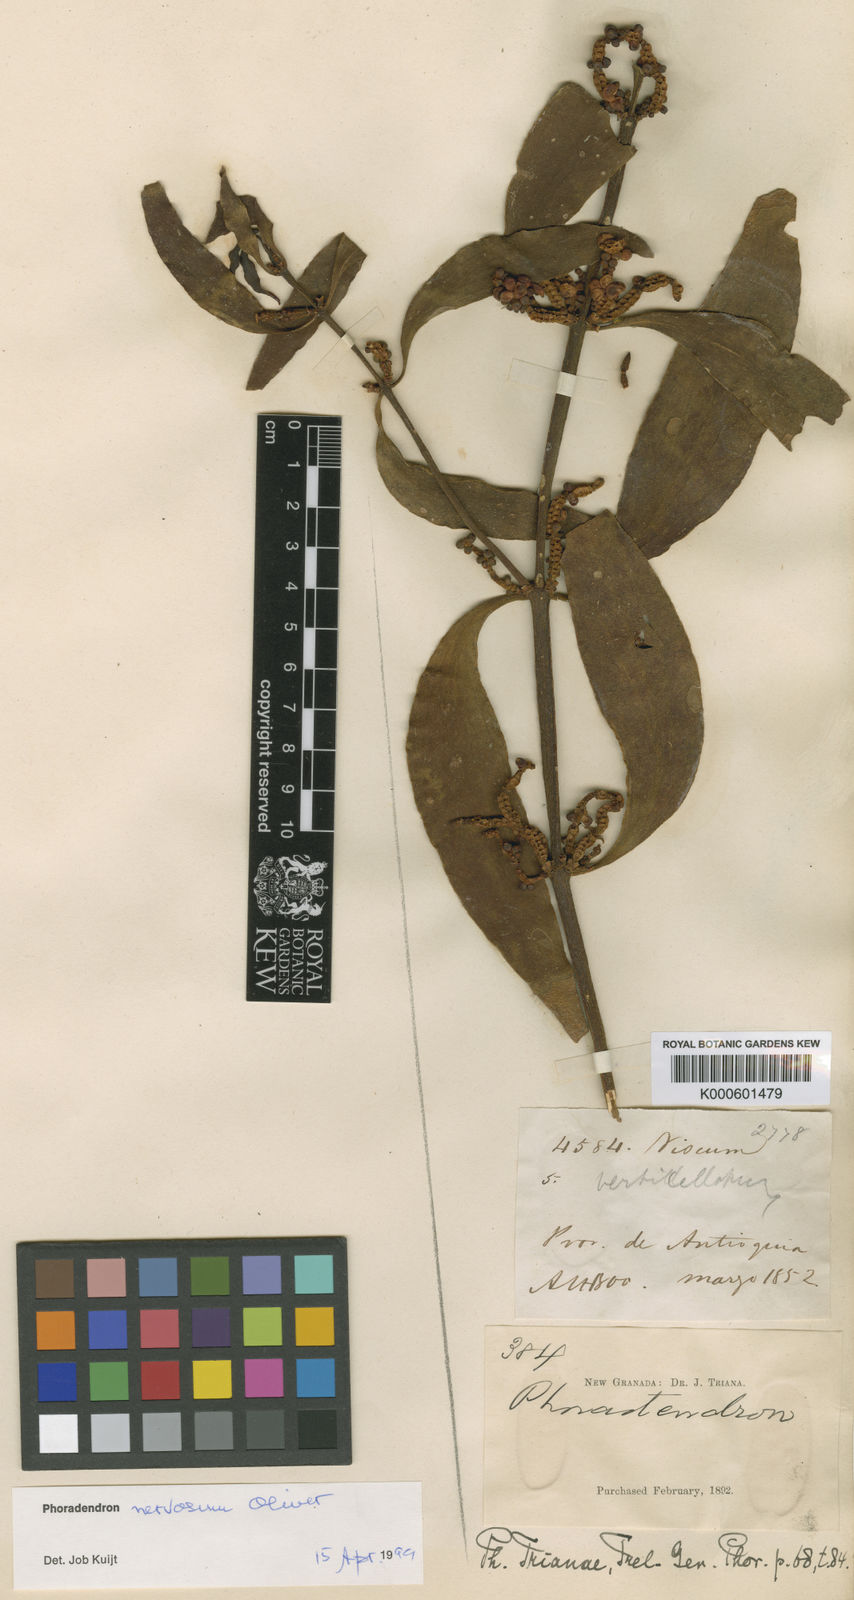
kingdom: Plantae
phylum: Tracheophyta
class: Magnoliopsida
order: Santalales
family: Viscaceae
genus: Phoradendron
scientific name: Phoradendron nervosum
